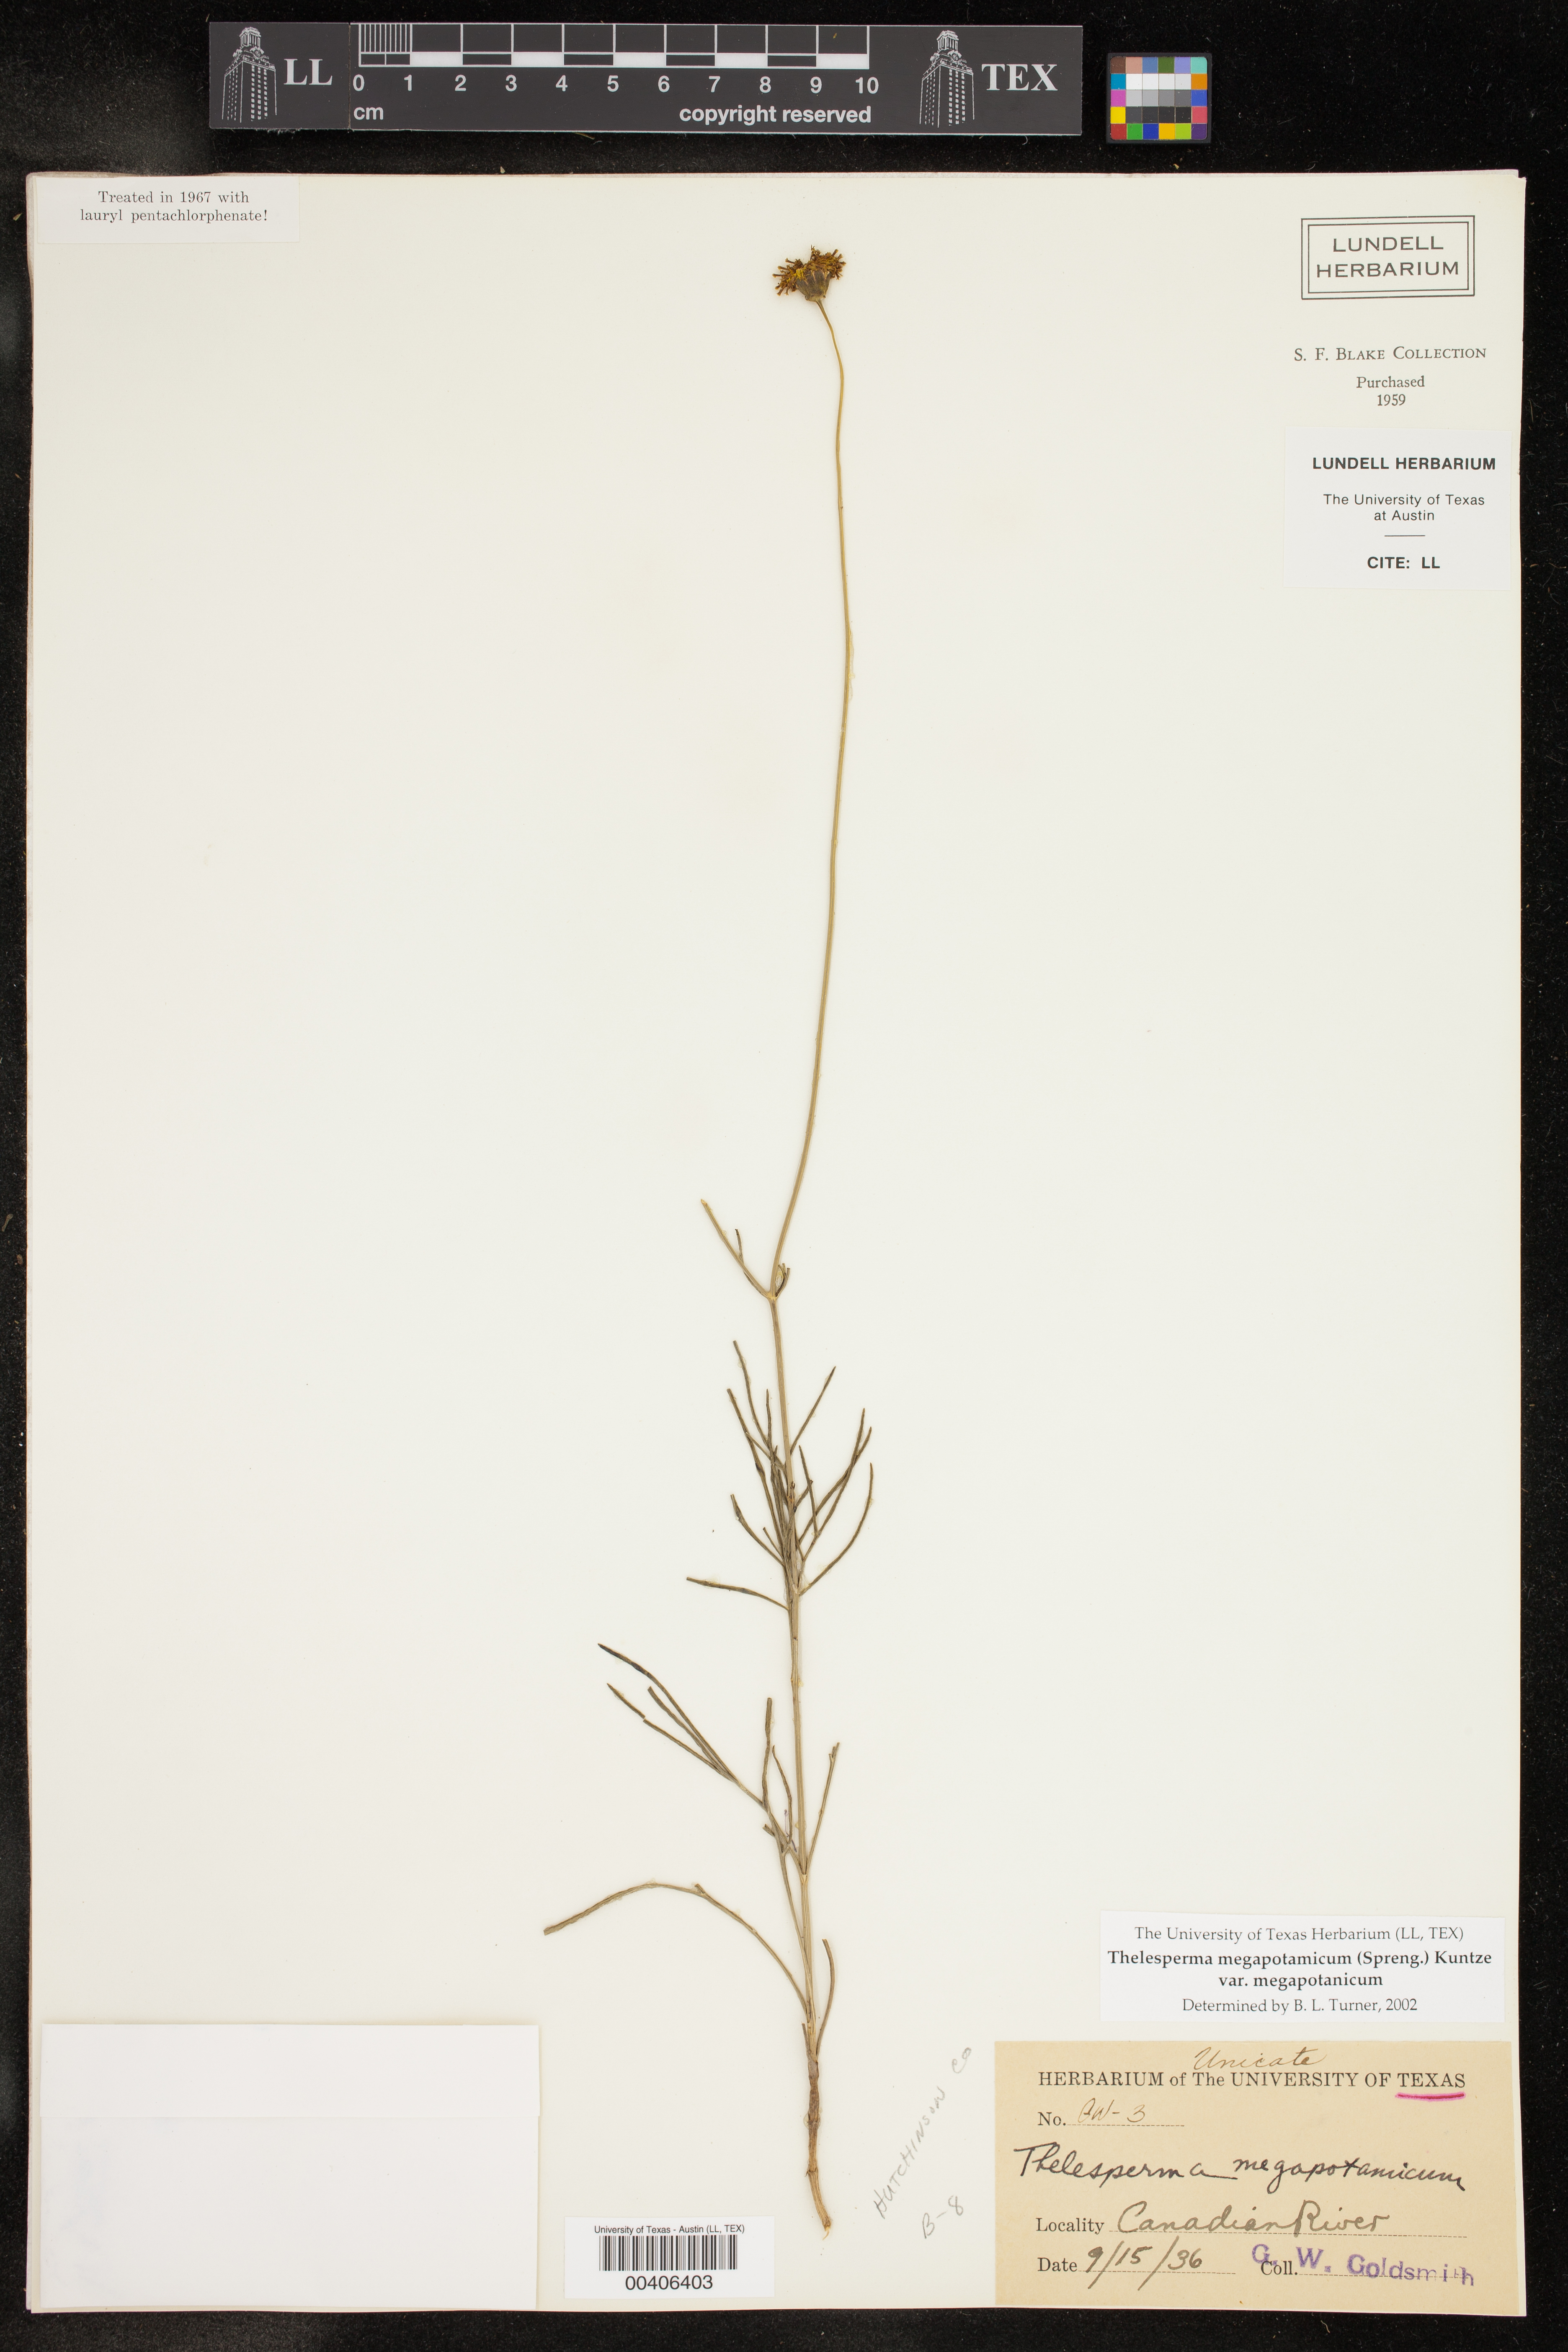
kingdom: Plantae
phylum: Tracheophyta
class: Magnoliopsida
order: Asterales
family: Asteraceae
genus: Thelesperma
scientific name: Thelesperma megapotamicum
